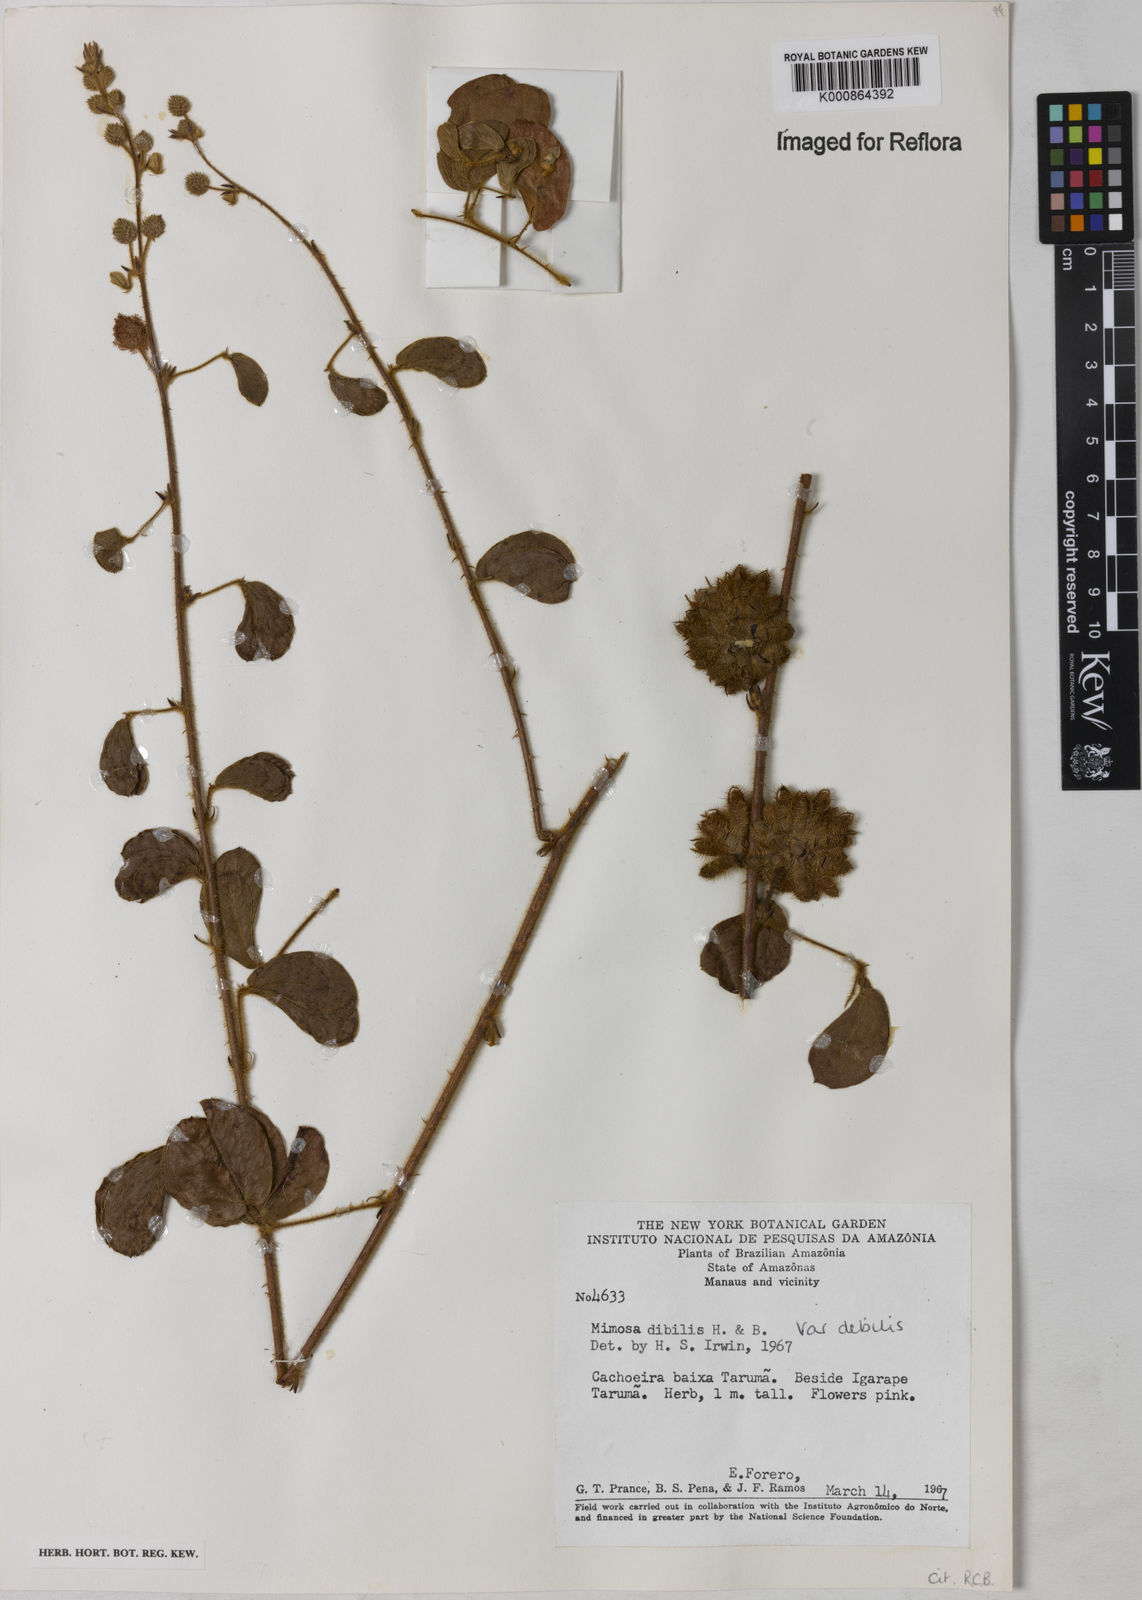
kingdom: Plantae
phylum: Tracheophyta
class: Magnoliopsida
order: Fabales
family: Fabaceae
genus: Mimosa
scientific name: Mimosa debilis
